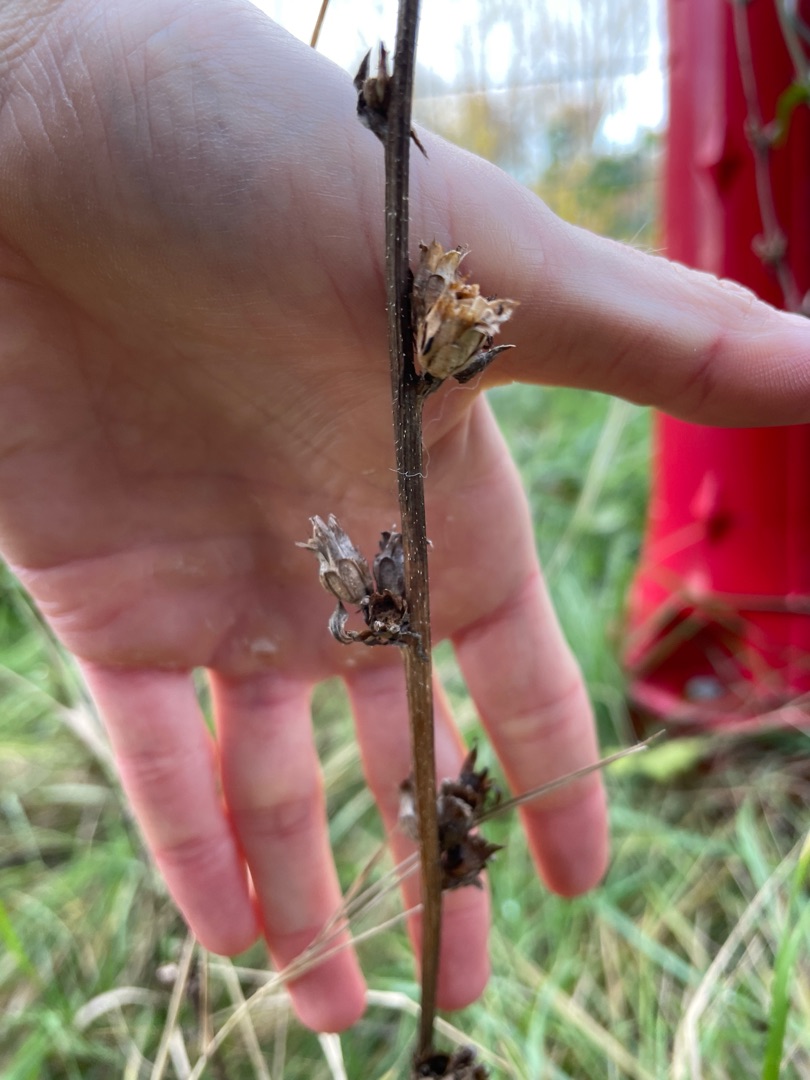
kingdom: Plantae
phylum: Tracheophyta
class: Magnoliopsida
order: Asterales
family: Asteraceae
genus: Cichorium
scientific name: Cichorium intybus
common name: Cikorie
